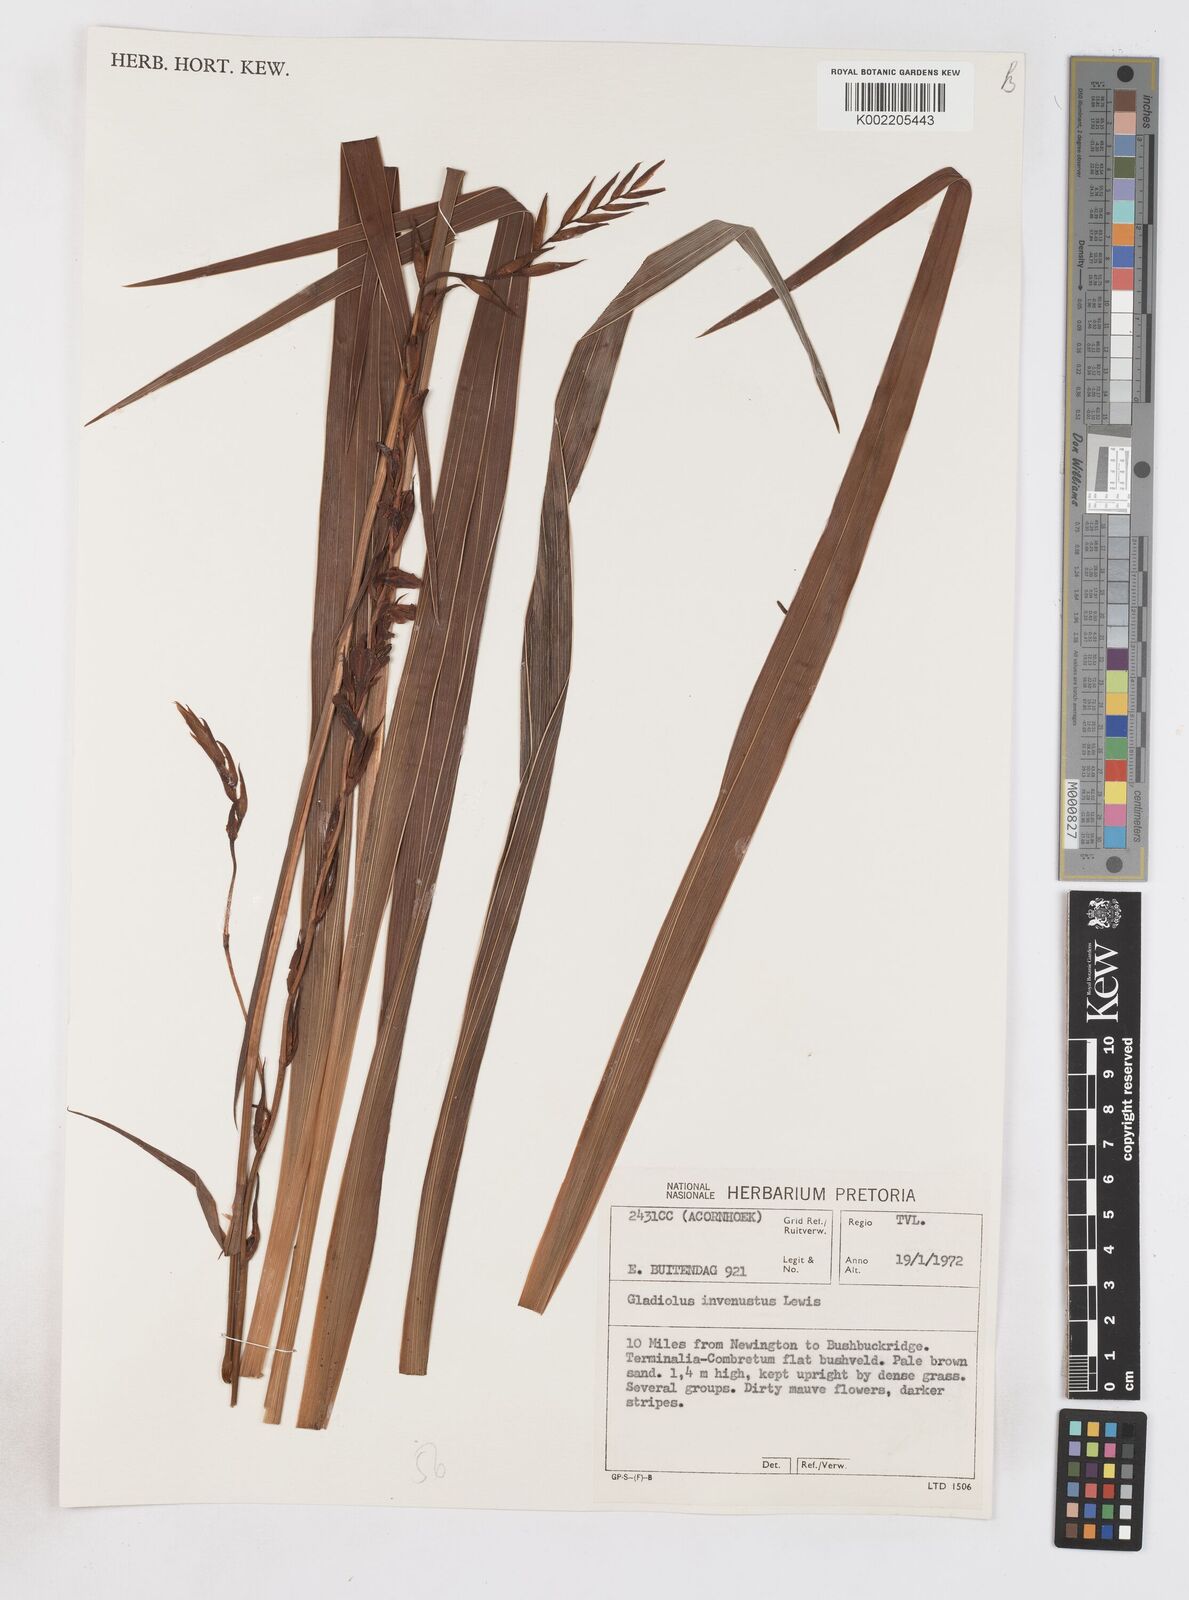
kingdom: Plantae
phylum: Tracheophyta
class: Liliopsida
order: Asparagales
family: Iridaceae
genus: Gladiolus
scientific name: Gladiolus densiflorus
